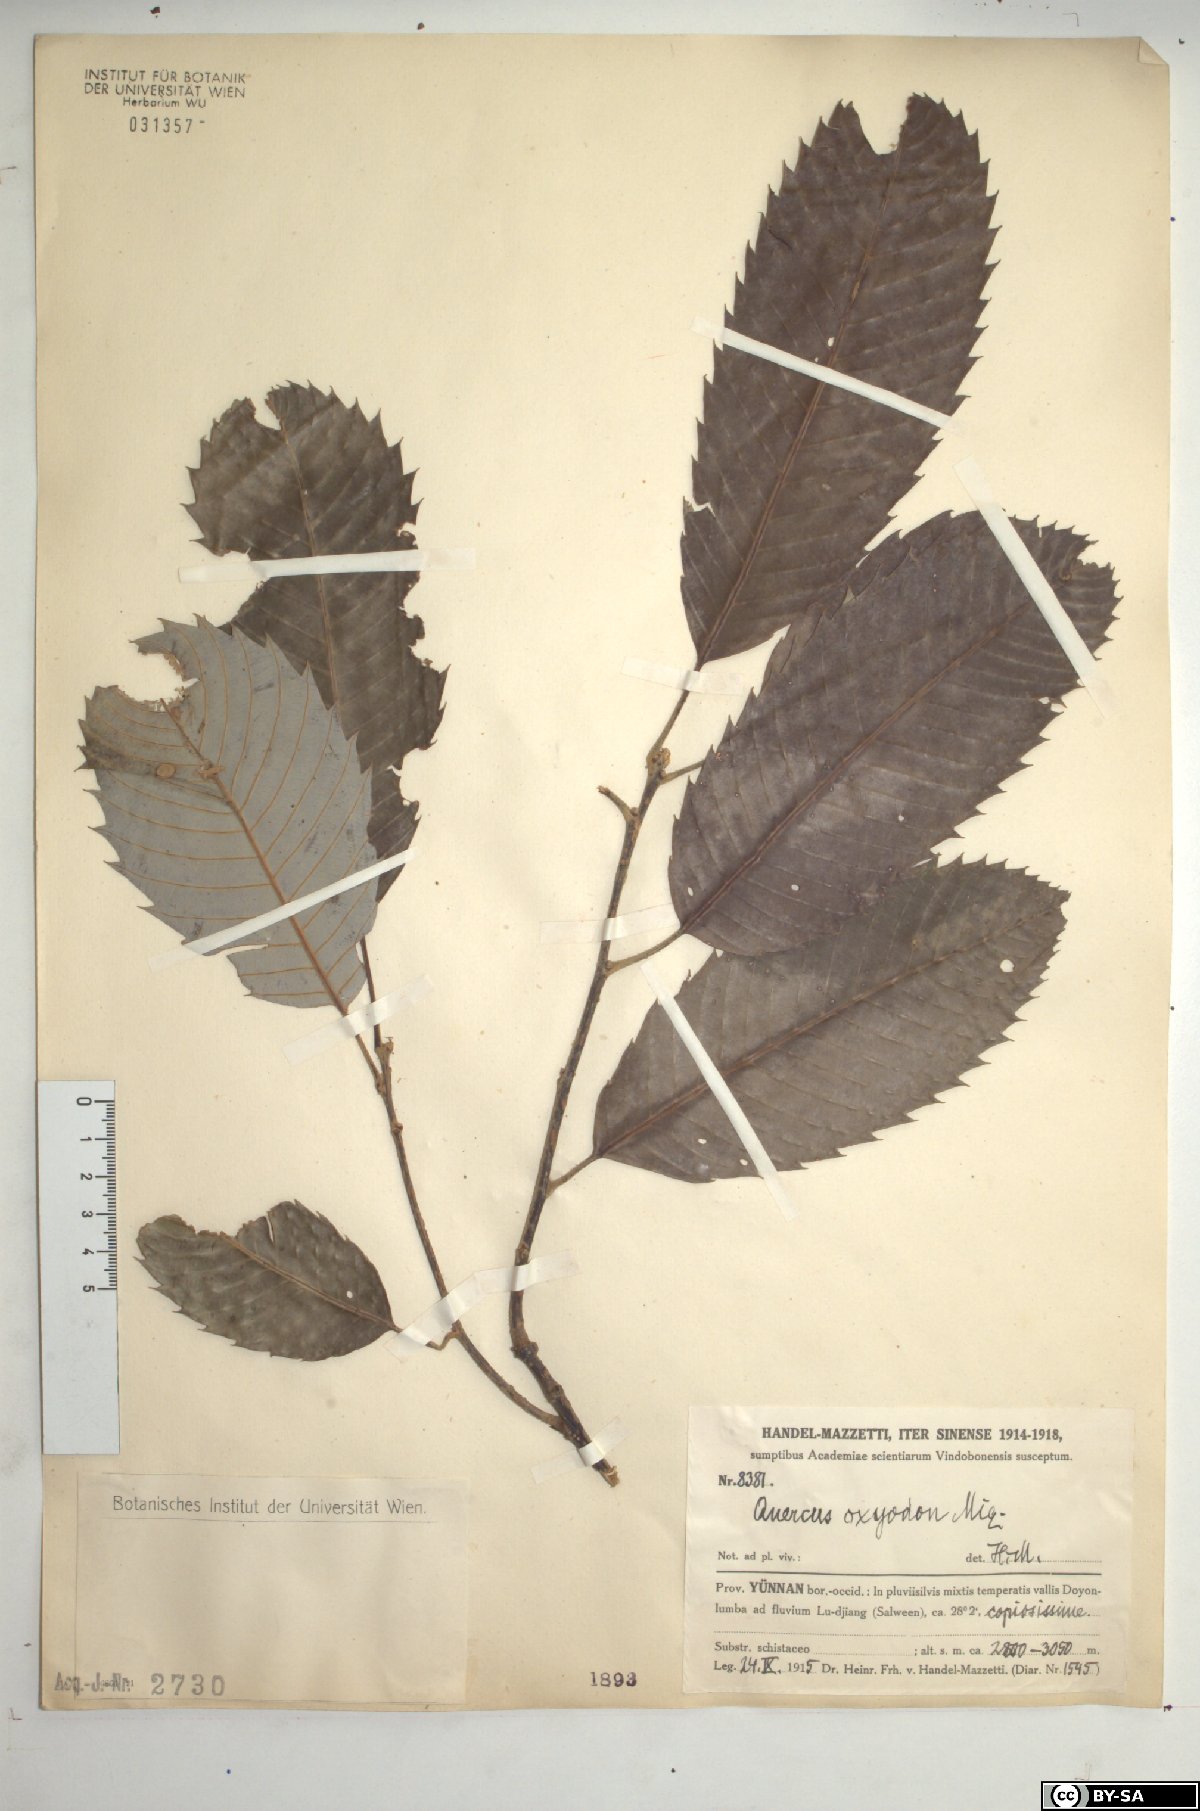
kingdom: Plantae
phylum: Tracheophyta
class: Magnoliopsida
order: Fagales
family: Fagaceae
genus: Quercus
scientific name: Quercus oxyodon
